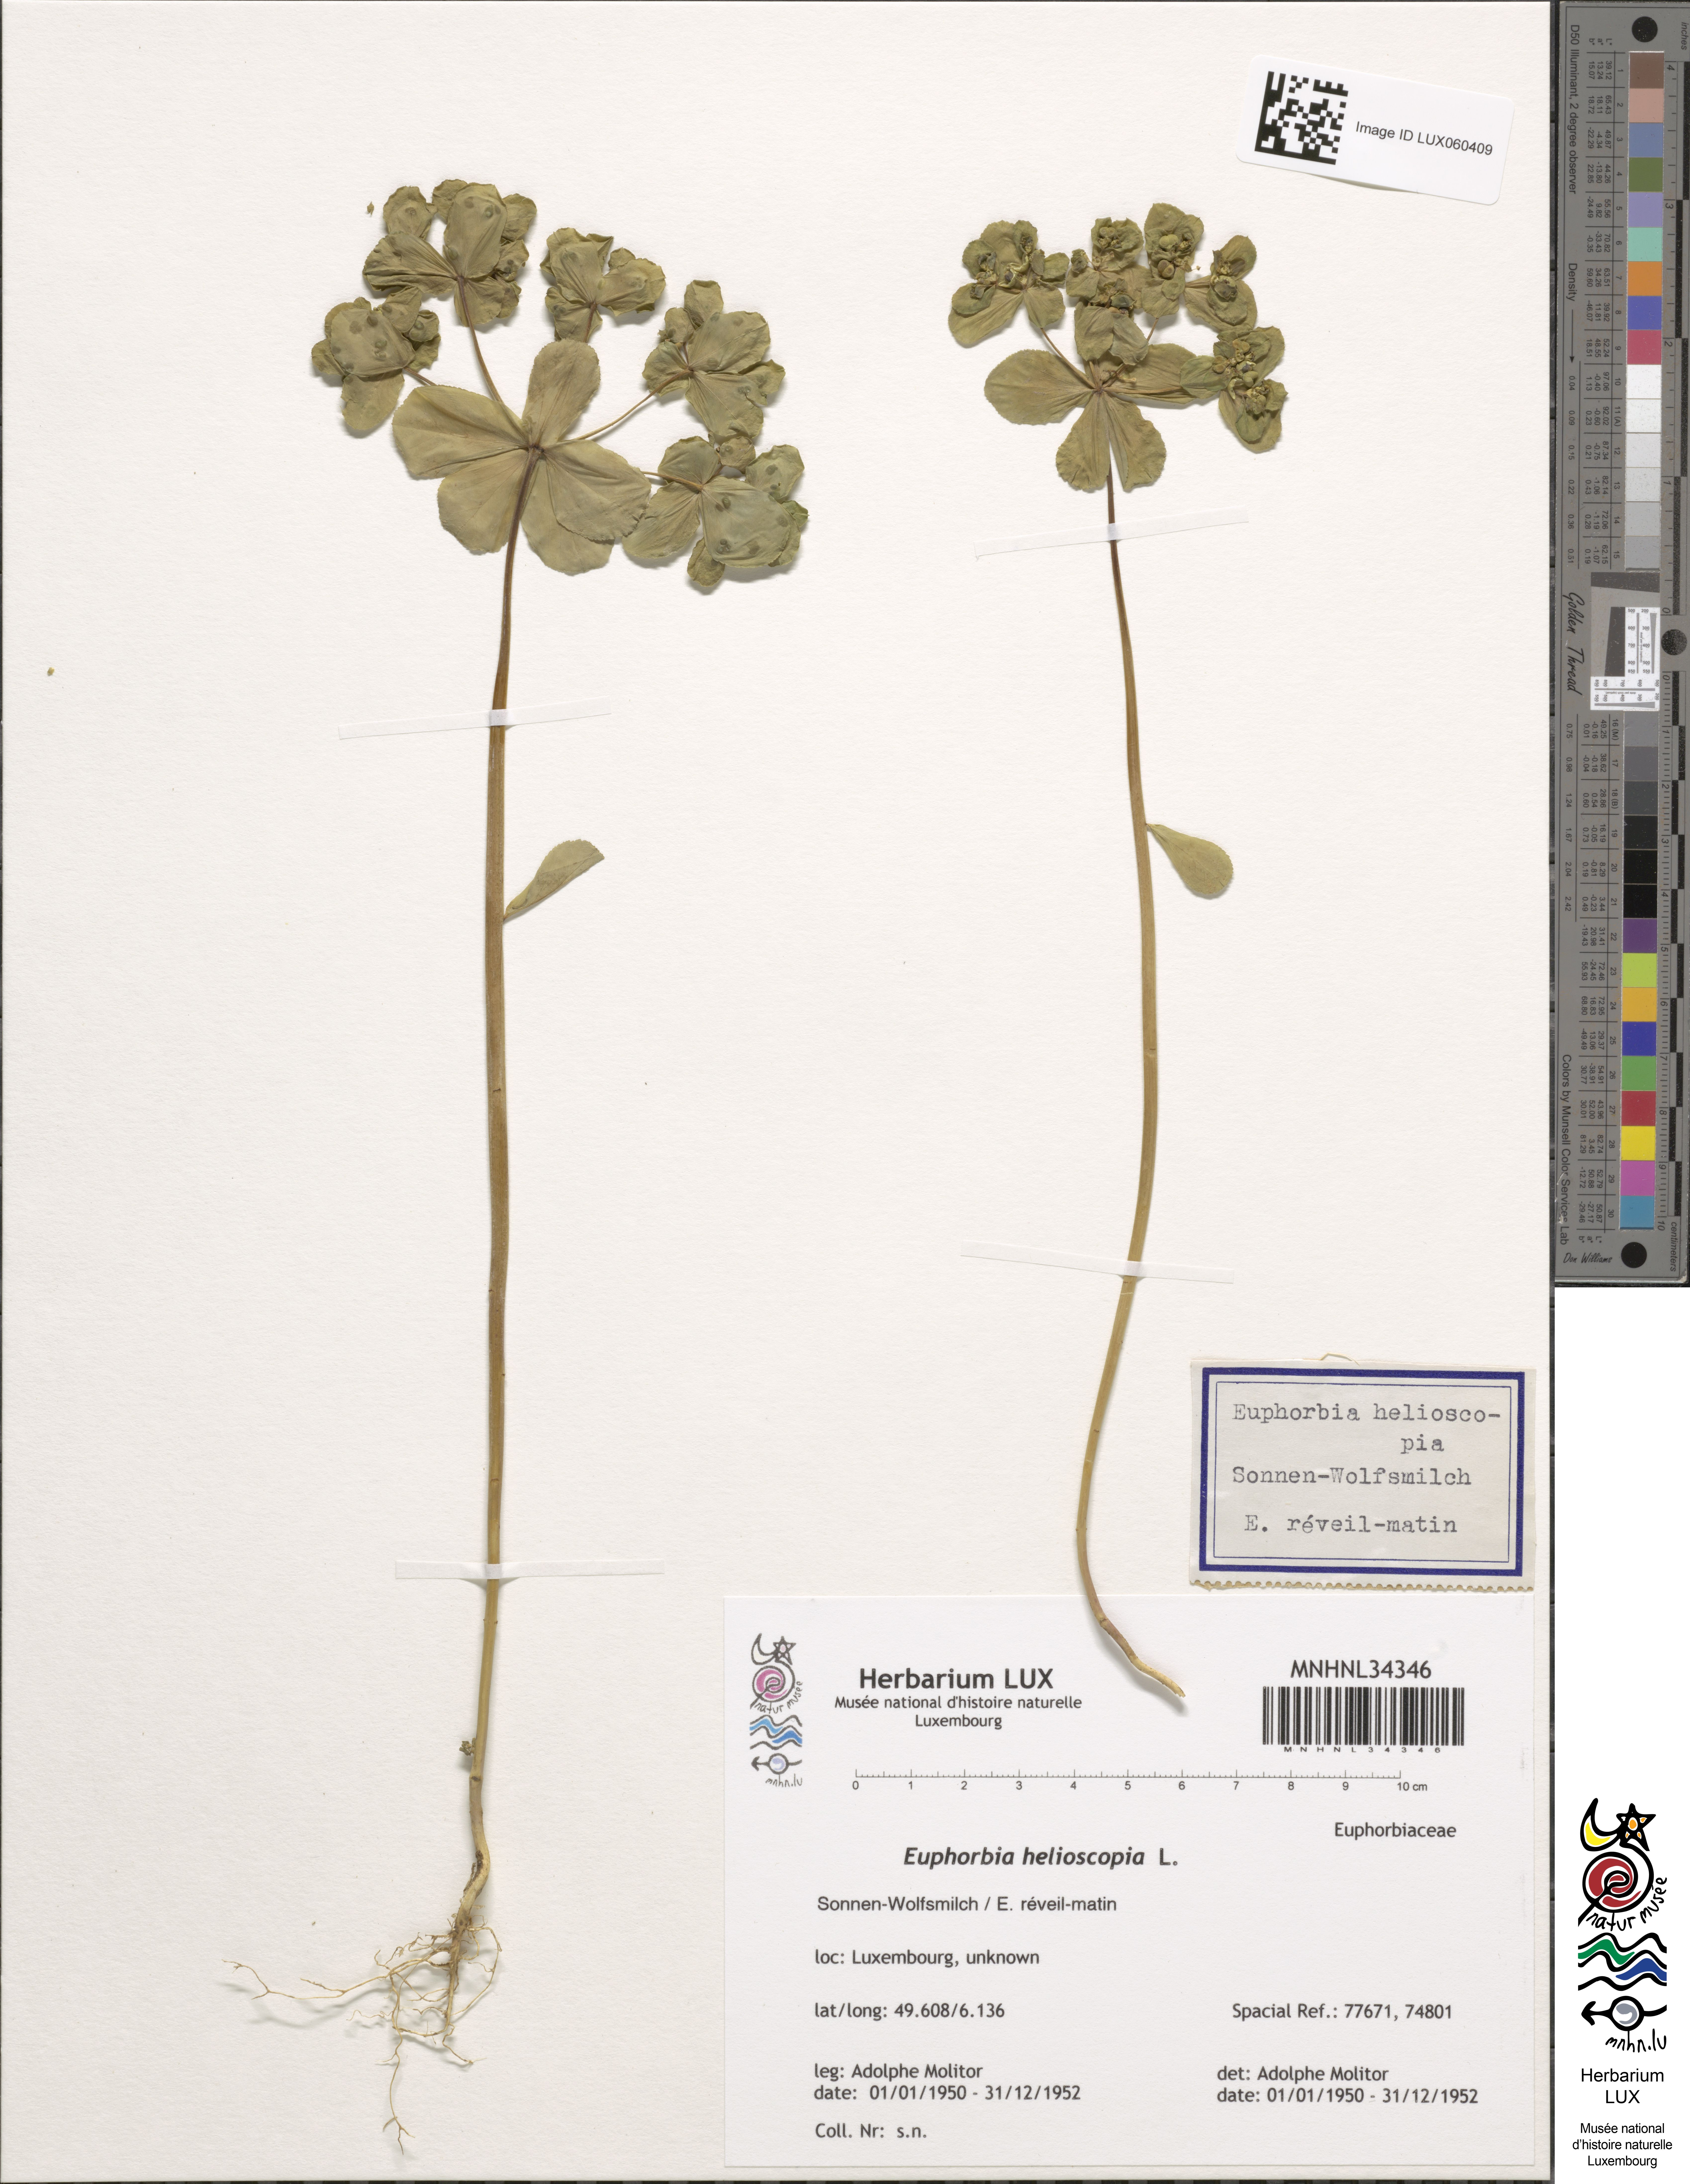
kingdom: Plantae
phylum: Tracheophyta
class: Magnoliopsida
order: Malpighiales
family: Euphorbiaceae
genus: Euphorbia
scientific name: Euphorbia helioscopia
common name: Sun spurge
